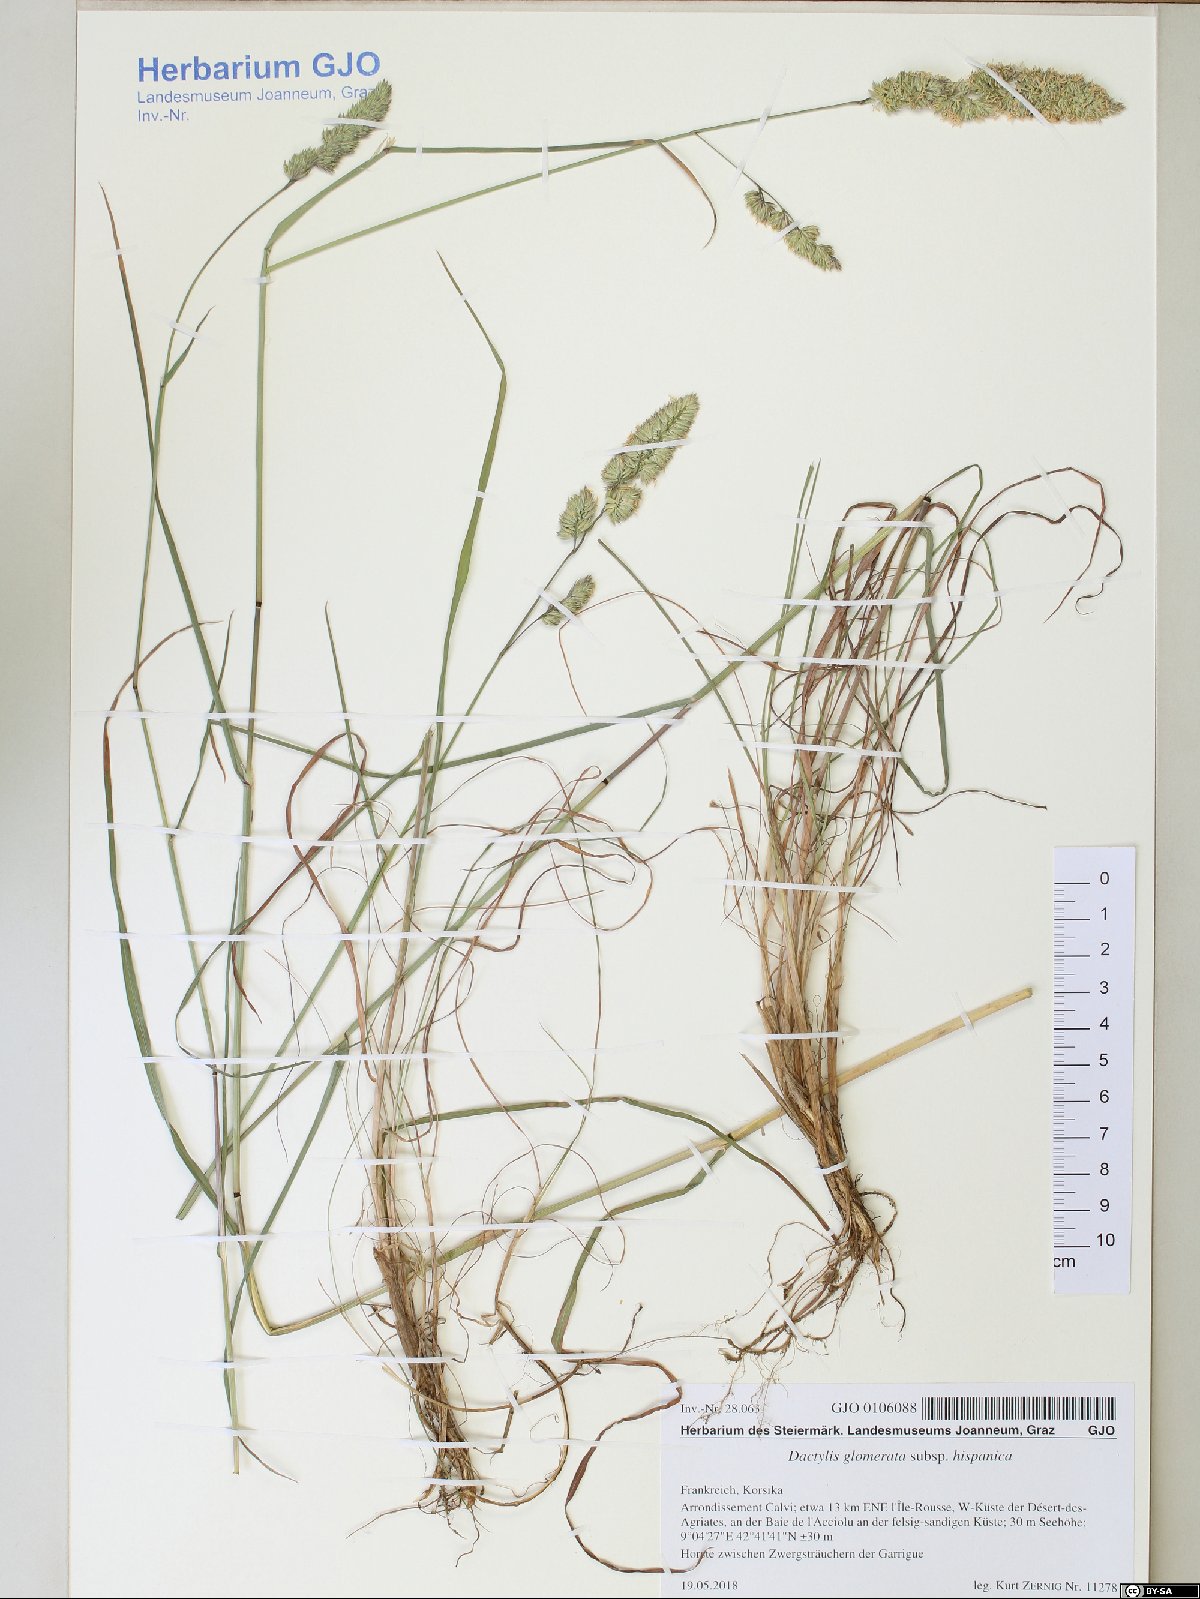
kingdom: Plantae
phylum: Tracheophyta
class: Liliopsida
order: Poales
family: Poaceae
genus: Dactylis
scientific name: Dactylis glomerata
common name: Orchardgrass
